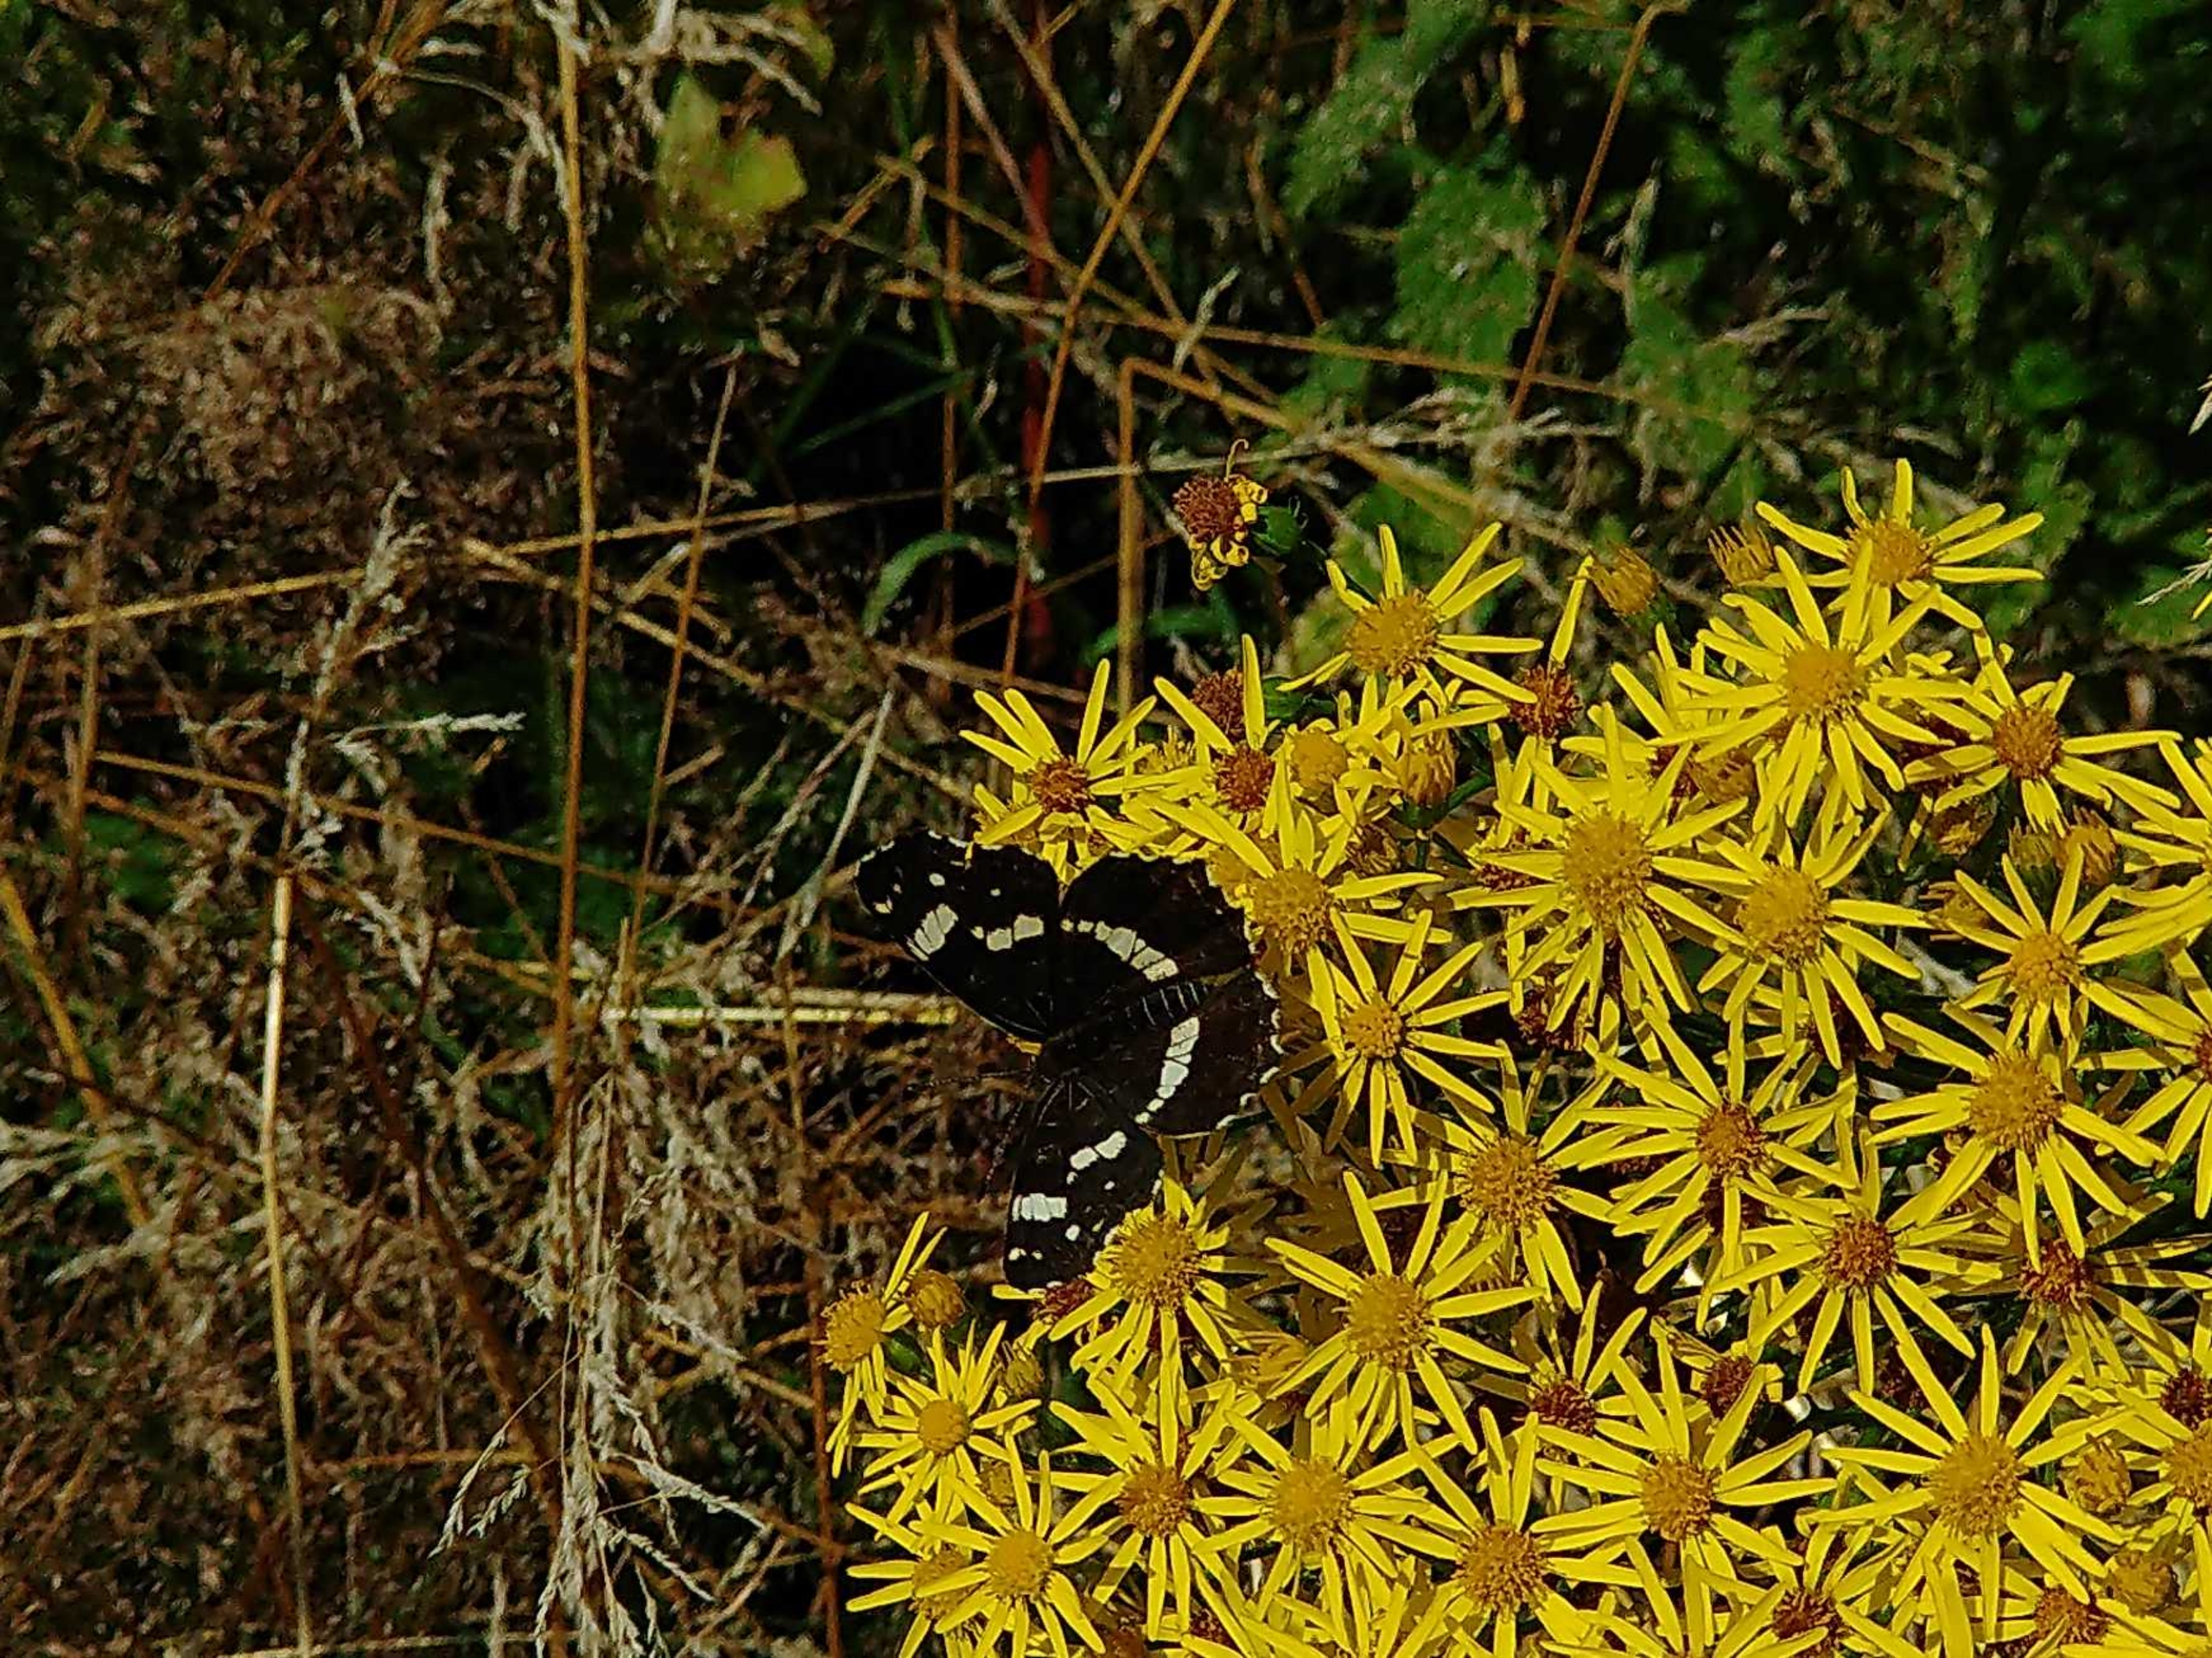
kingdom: Animalia
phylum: Arthropoda
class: Insecta
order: Lepidoptera
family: Nymphalidae
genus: Araschnia
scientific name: Araschnia levana
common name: Nældesommerfugl
